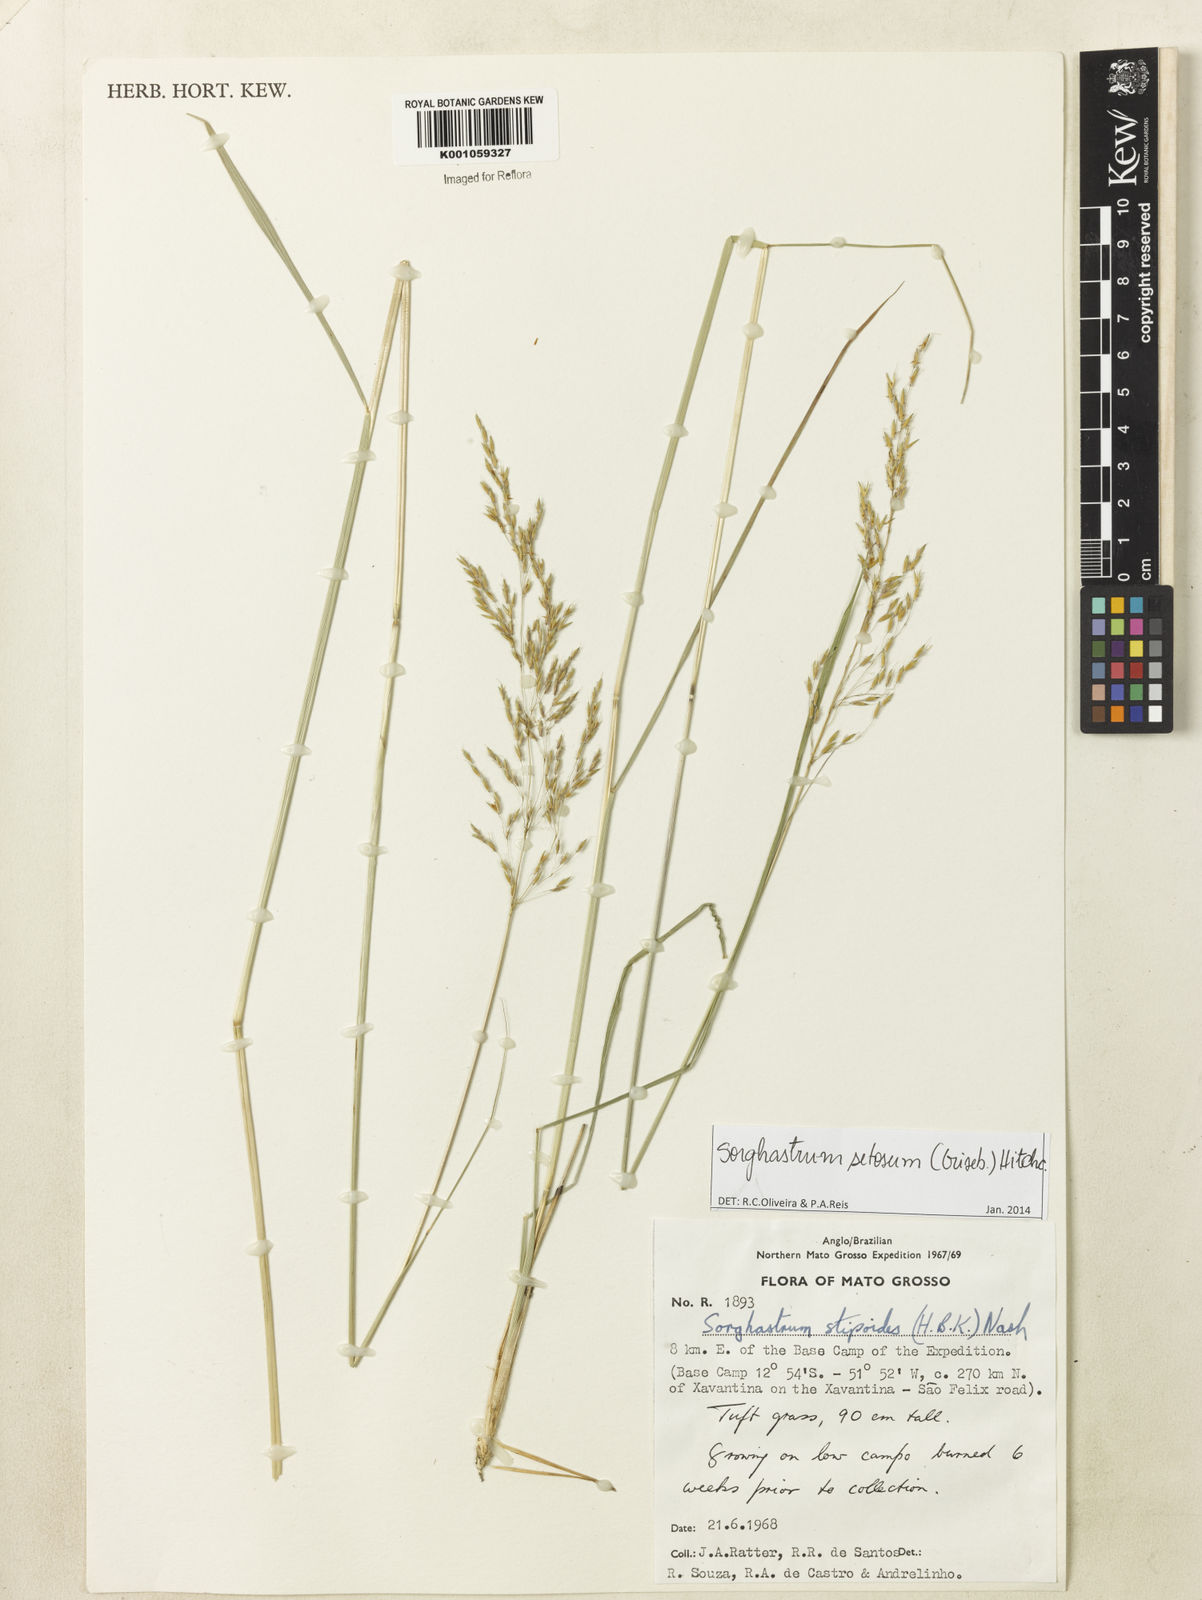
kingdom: Plantae
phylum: Tracheophyta
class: Liliopsida
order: Poales
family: Poaceae
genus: Sorghastrum
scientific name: Sorghastrum setosum
